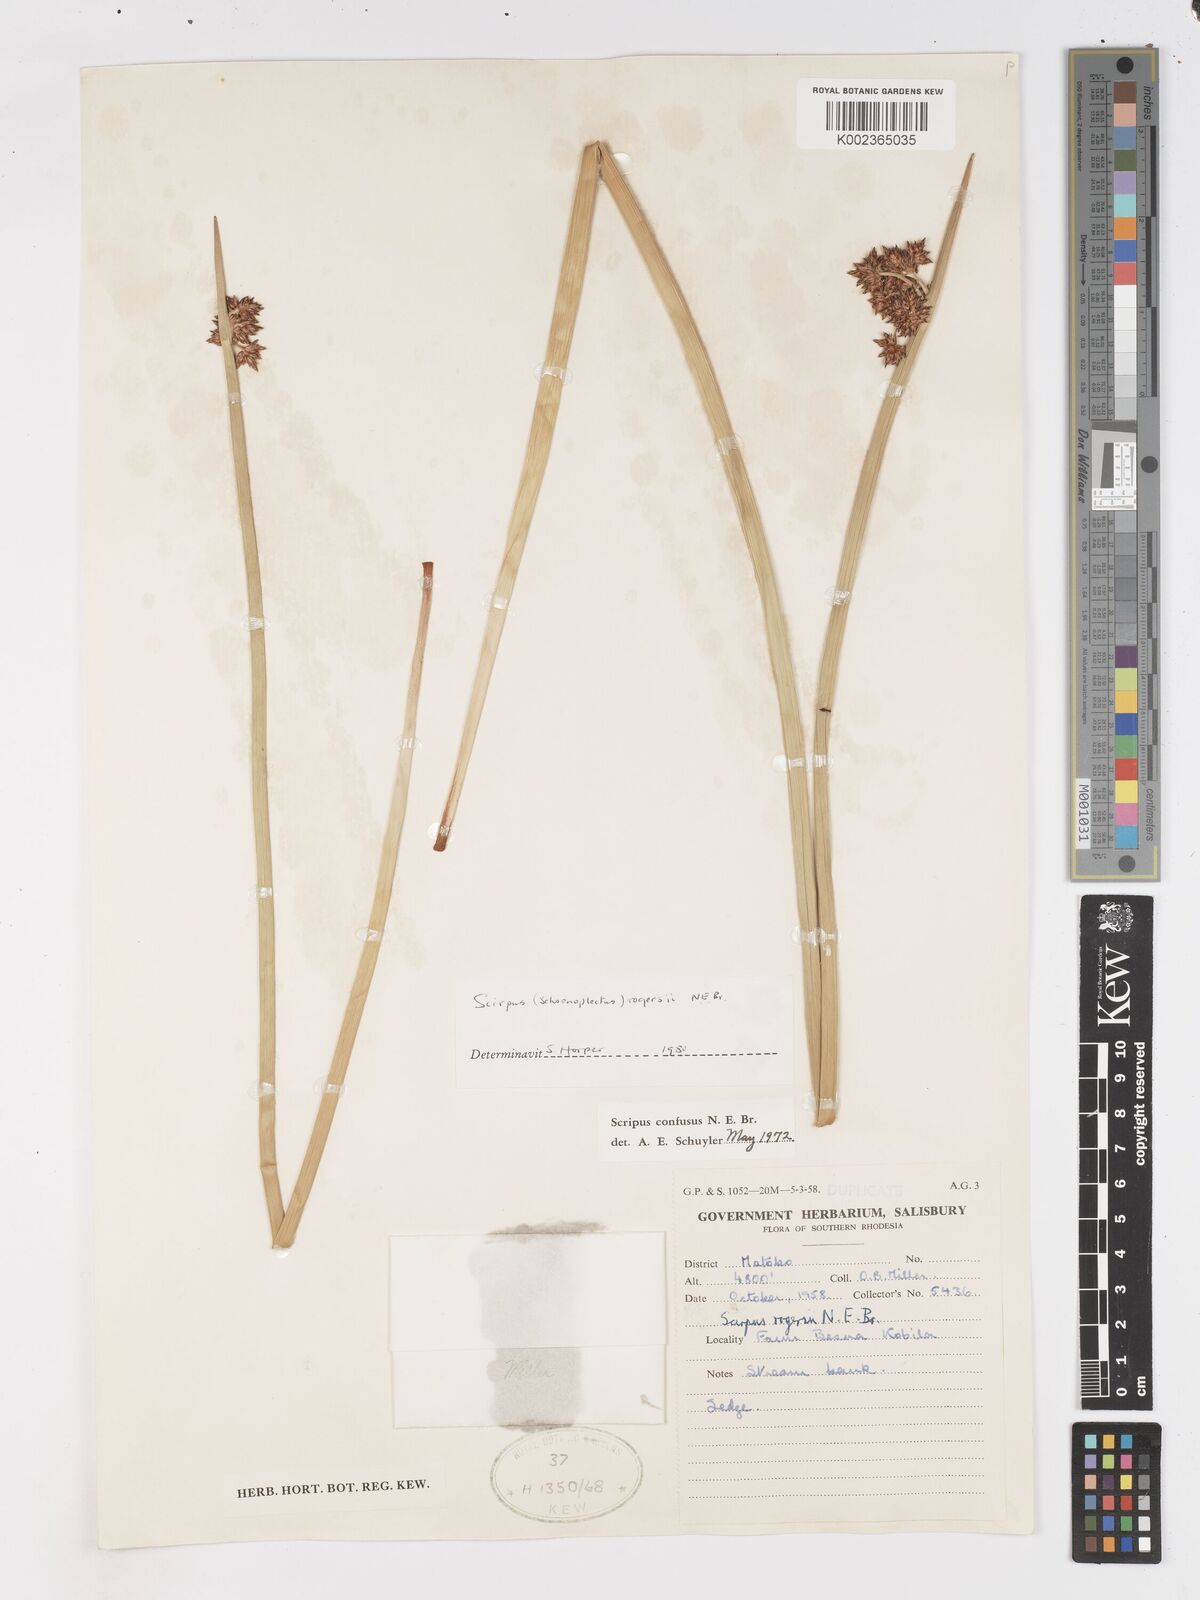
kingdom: Plantae
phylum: Tracheophyta
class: Liliopsida
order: Poales
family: Cyperaceae
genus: Schoenoplectiella
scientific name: Schoenoplectiella rogersii
